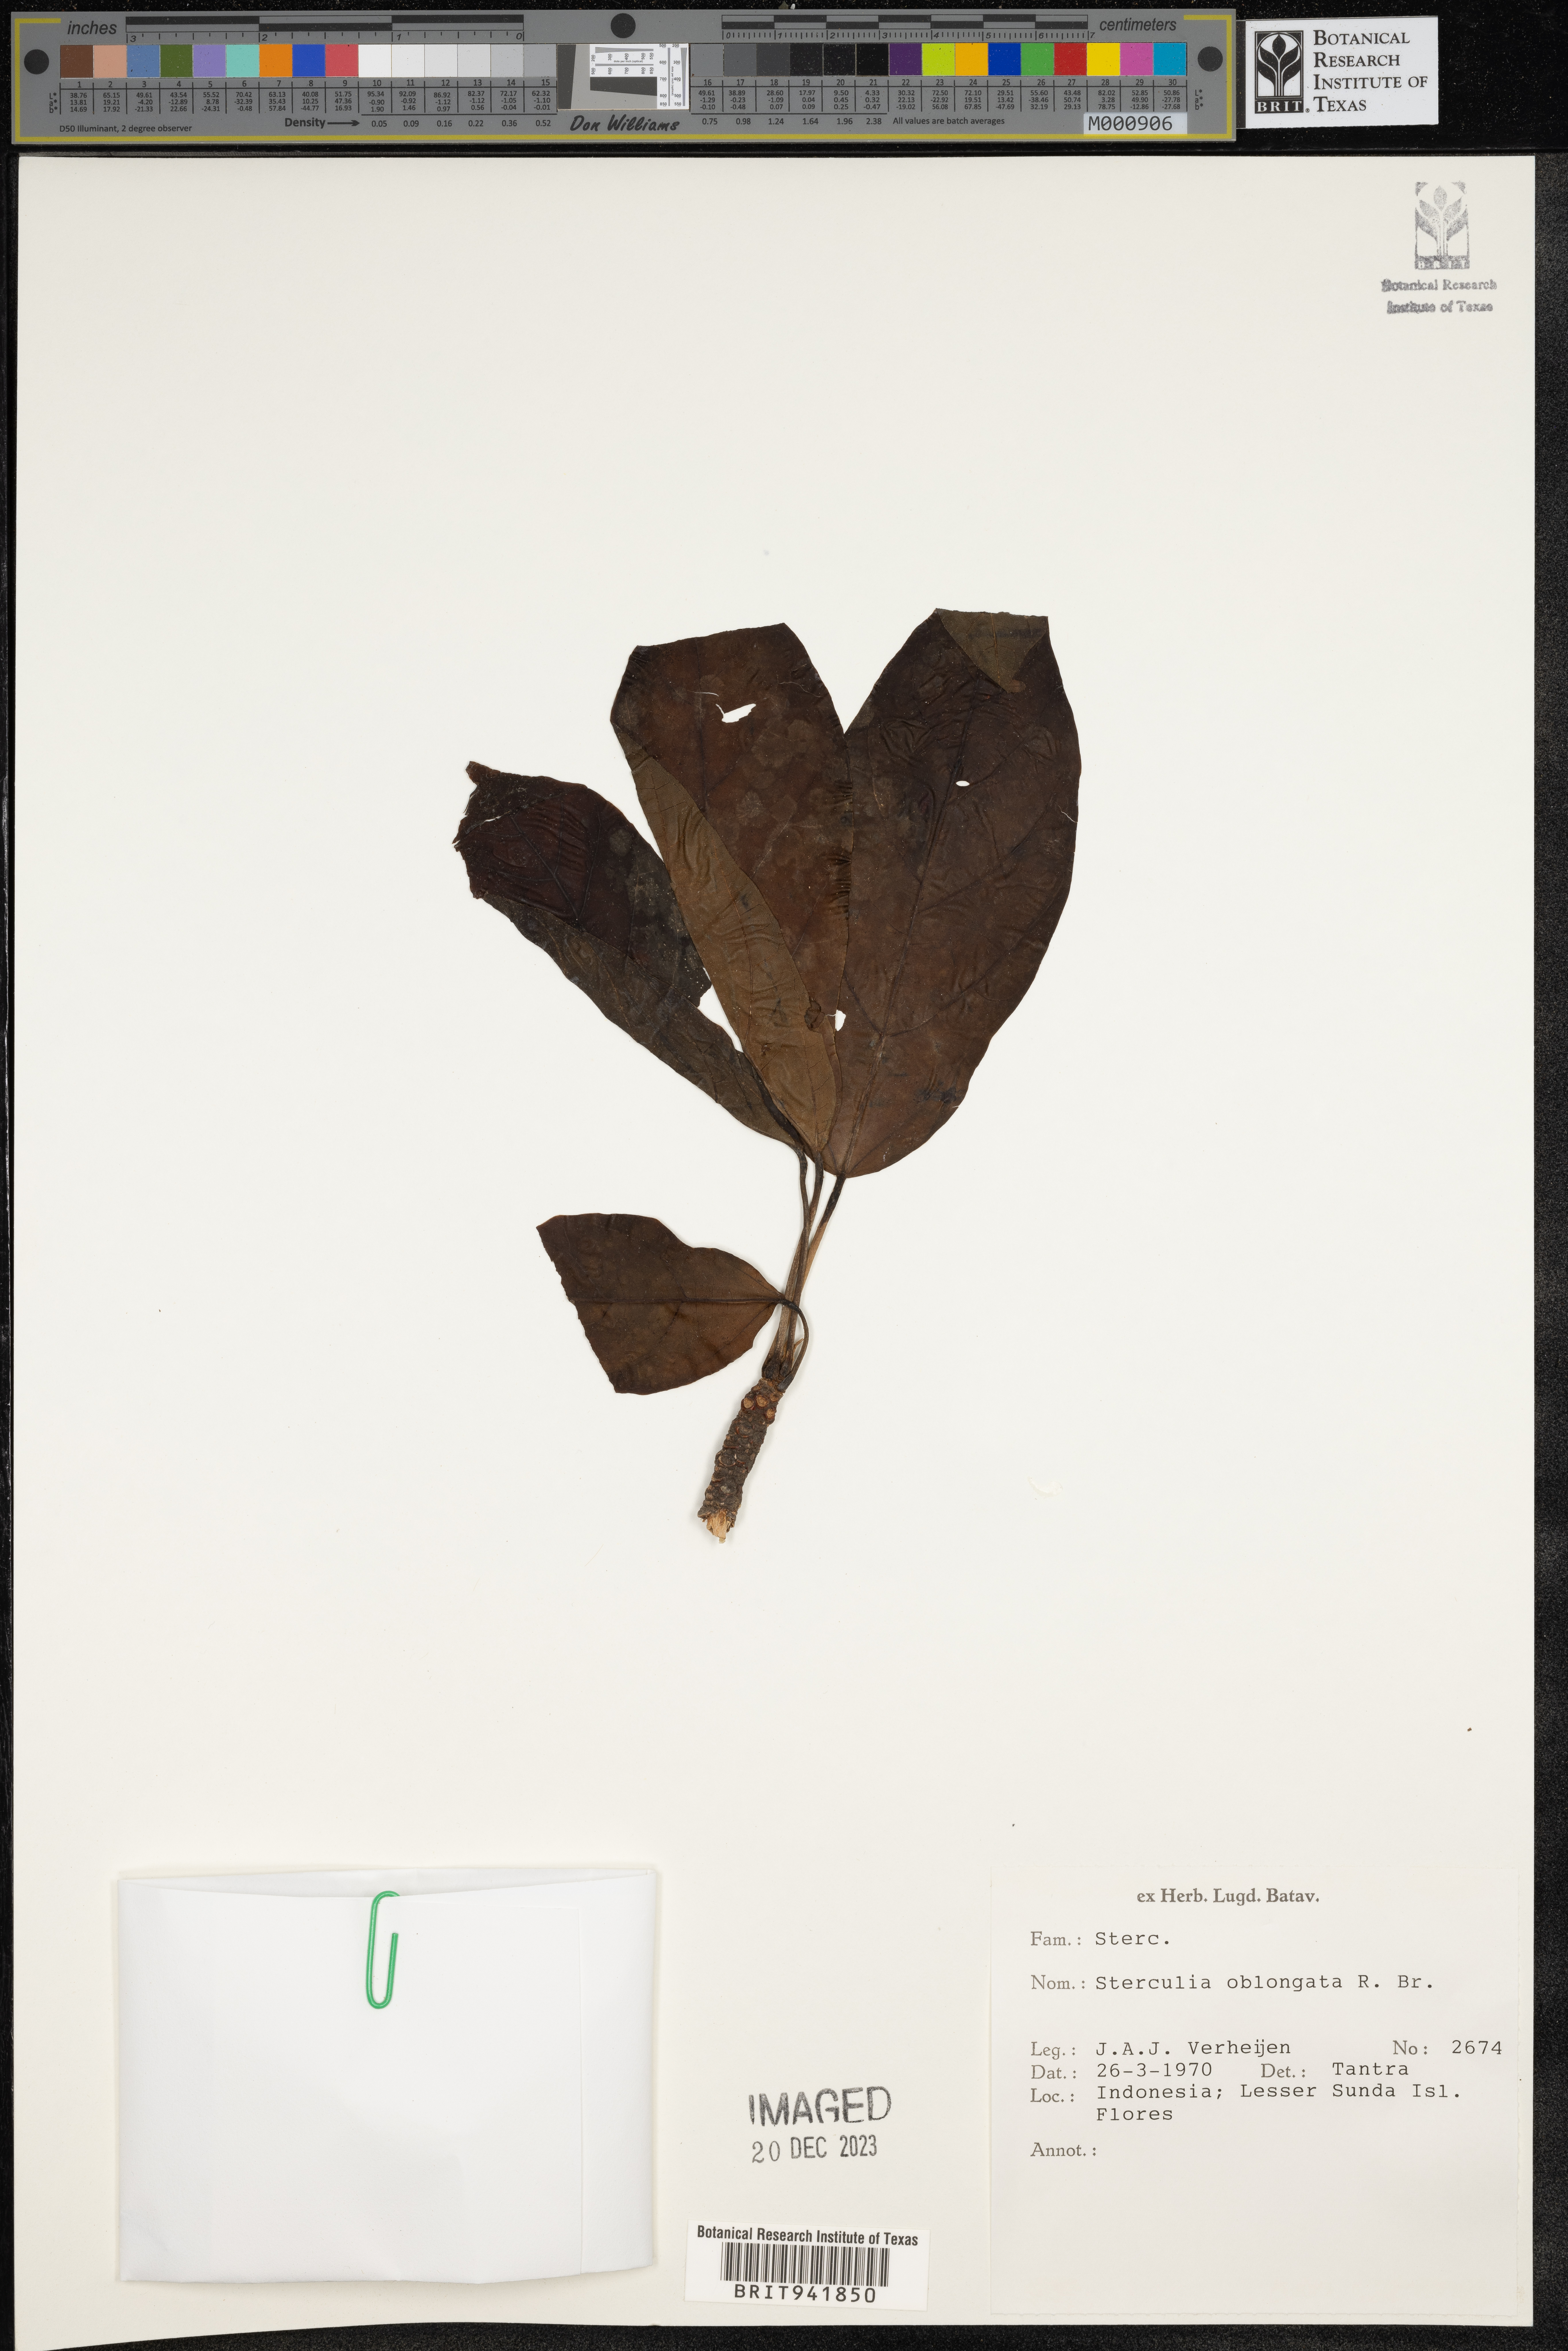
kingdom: Plantae
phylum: Tracheophyta
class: Magnoliopsida
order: Malvales
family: Malvaceae
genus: Sterculia
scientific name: Sterculia
